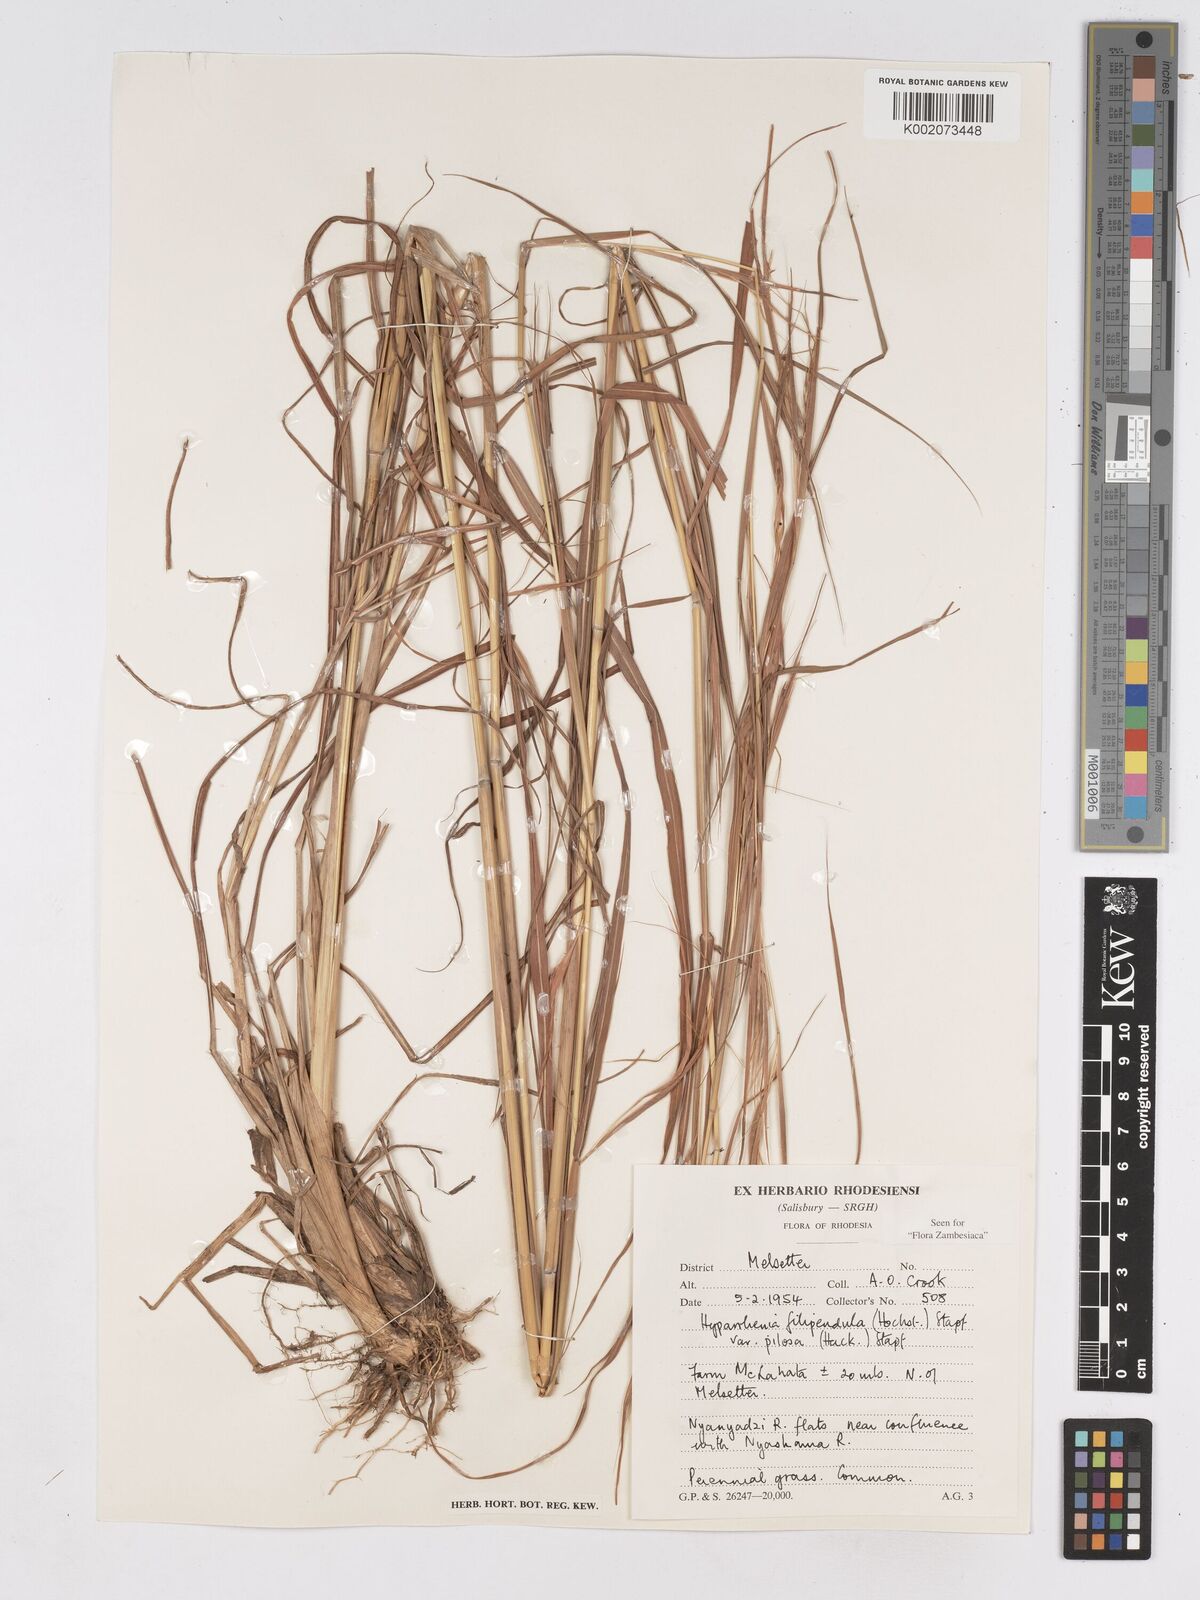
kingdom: Plantae
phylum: Tracheophyta
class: Liliopsida
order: Poales
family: Poaceae
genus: Hyparrhenia
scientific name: Hyparrhenia filipendula
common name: Tambookie grass
